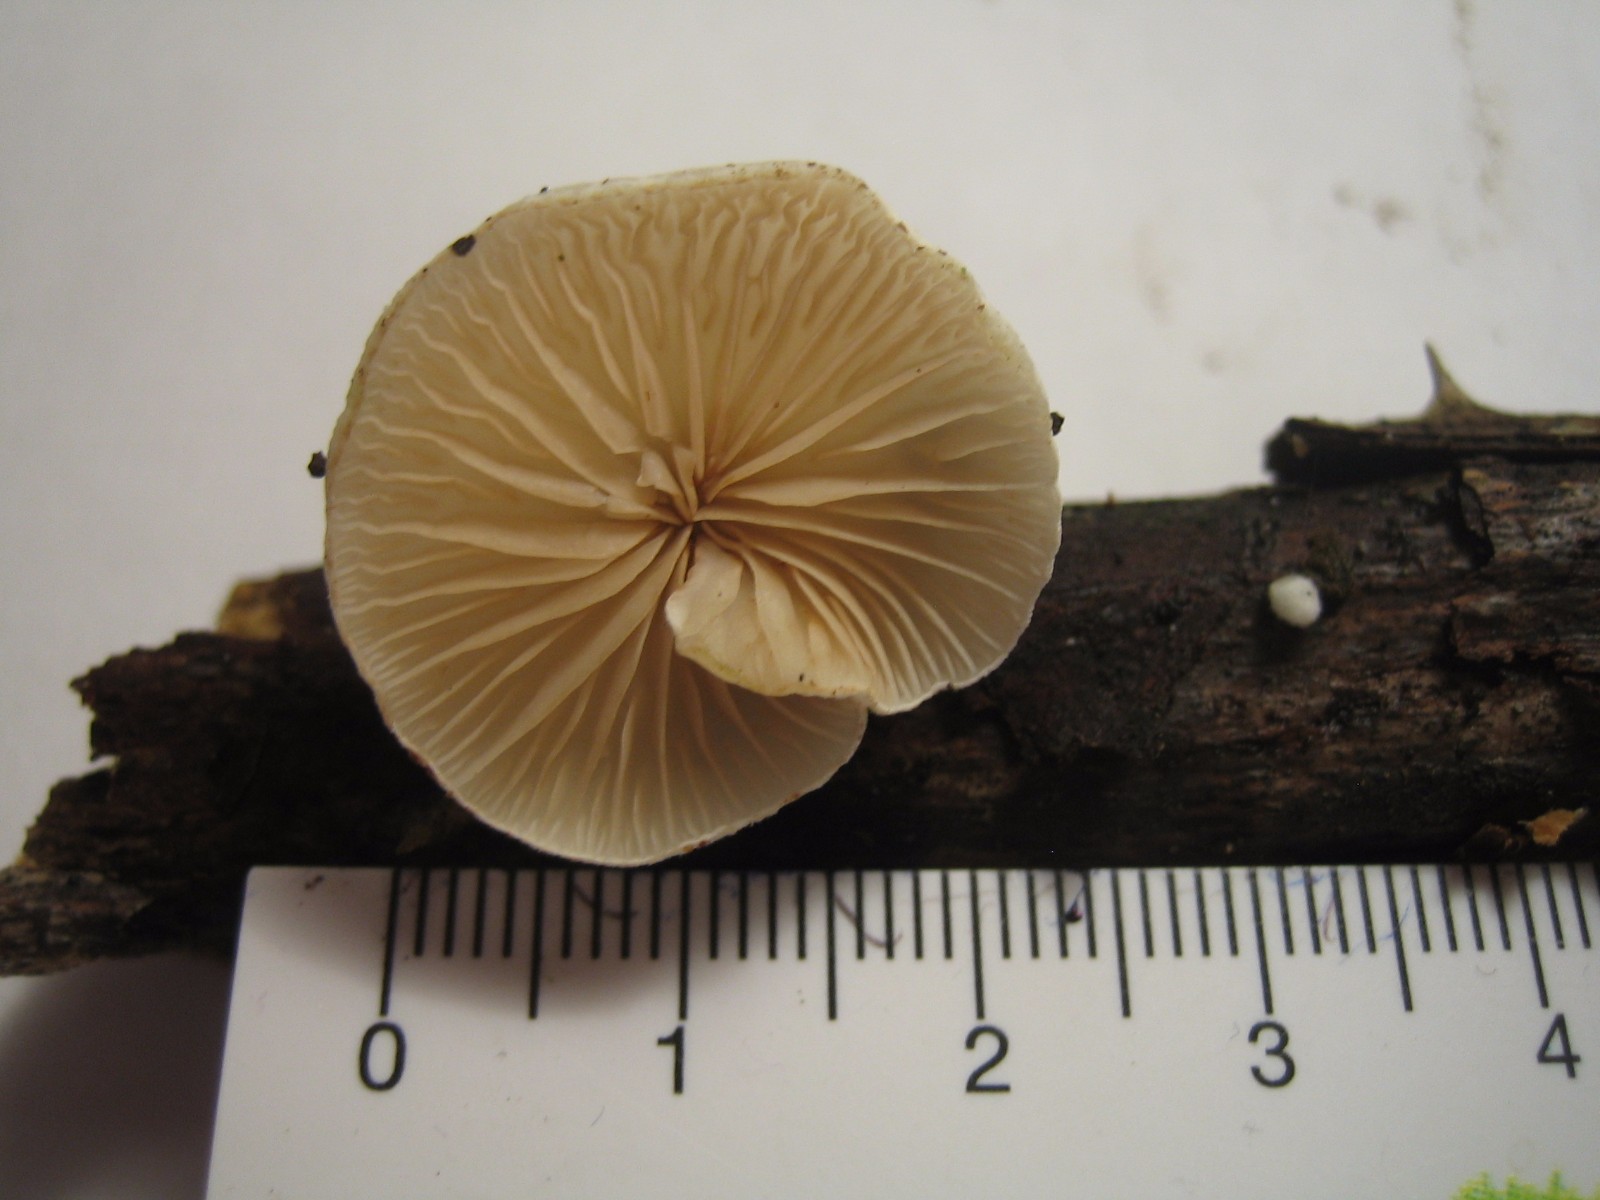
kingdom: Fungi
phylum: Basidiomycota
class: Agaricomycetes
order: Agaricales
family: Crepidotaceae
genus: Crepidotus
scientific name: Crepidotus
